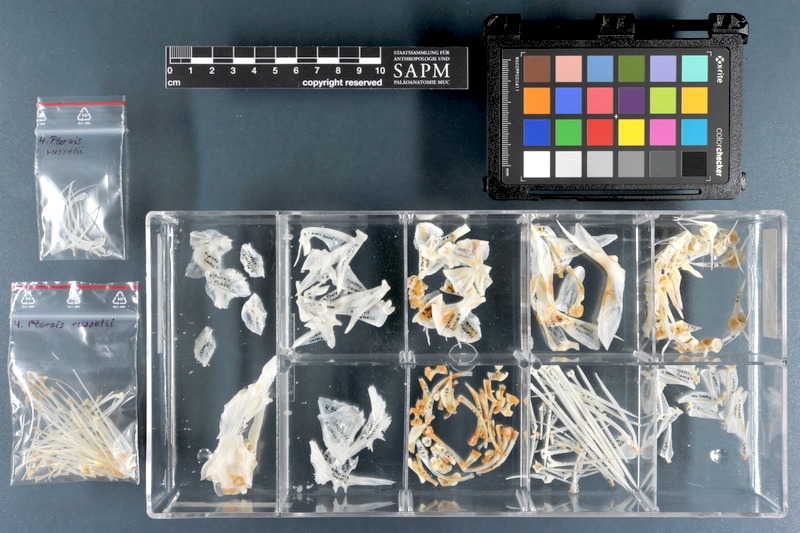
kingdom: Animalia
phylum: Chordata
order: Scorpaeniformes
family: Scorpaenidae
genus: Pterois
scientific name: Pterois russelii
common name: Plaintail firefish
